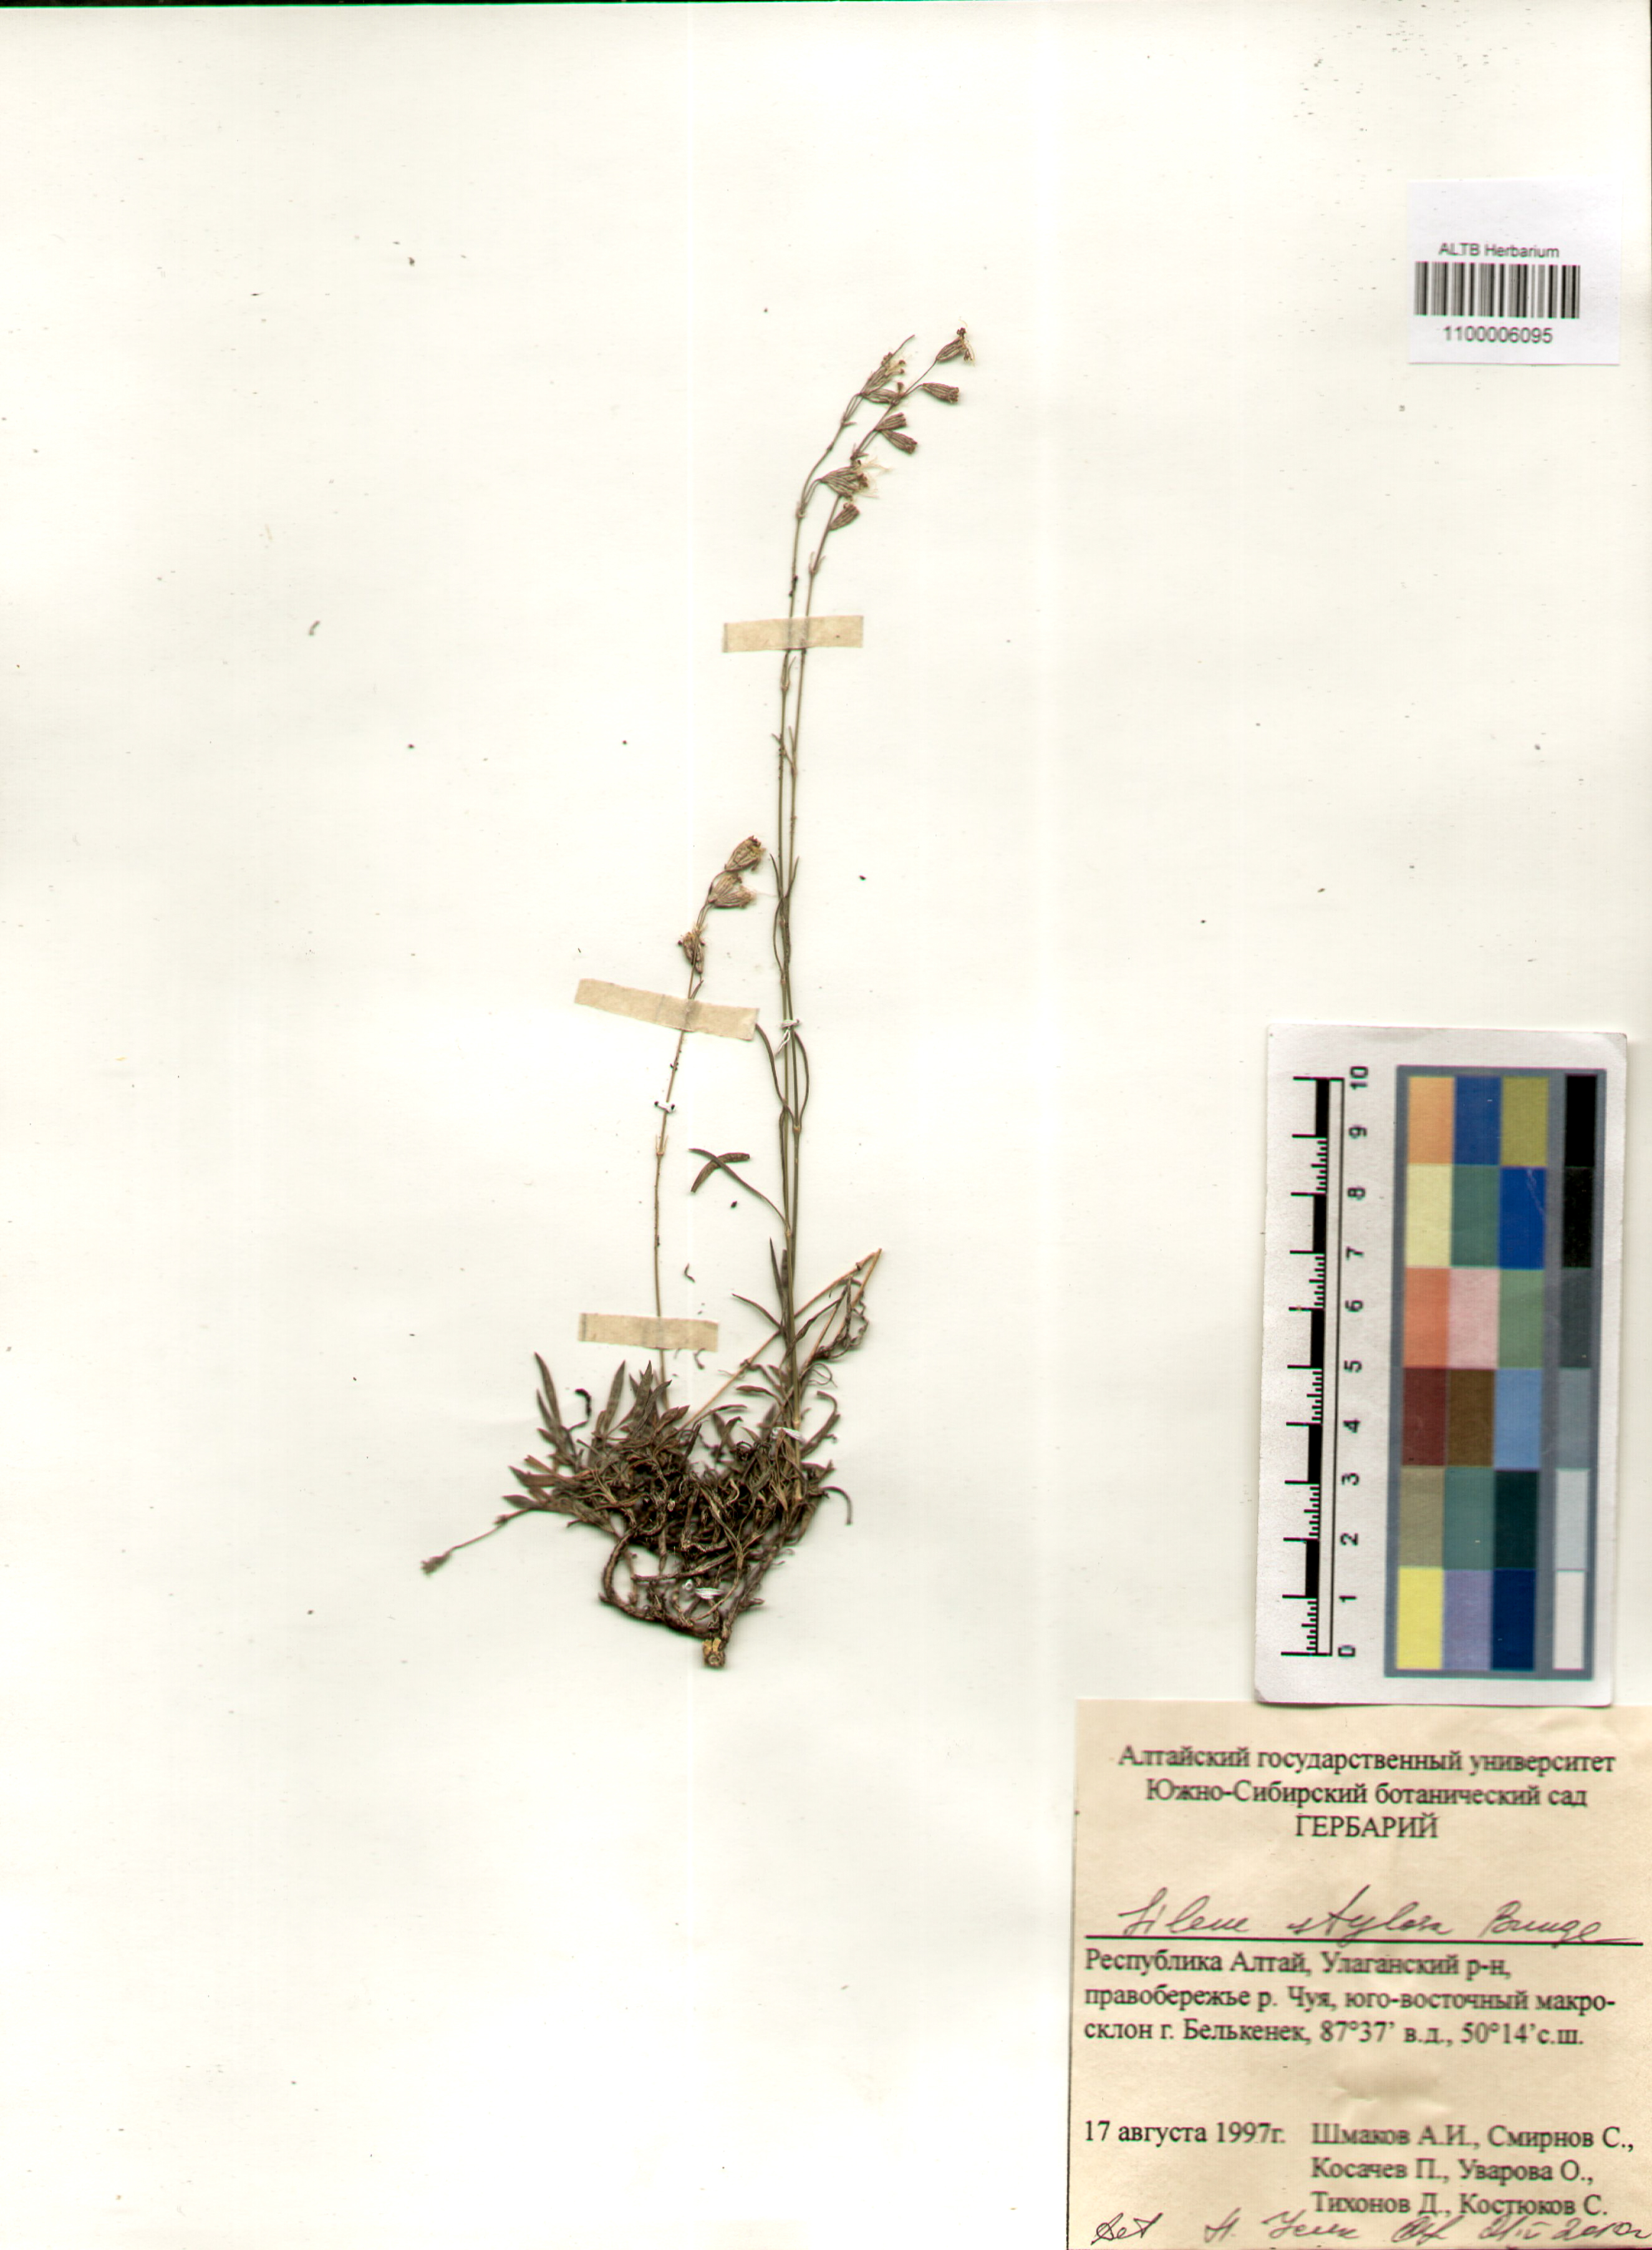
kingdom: Plantae
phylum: Tracheophyta
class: Magnoliopsida
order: Caryophyllales
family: Caryophyllaceae
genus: Silene
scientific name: Silene graminifolia
